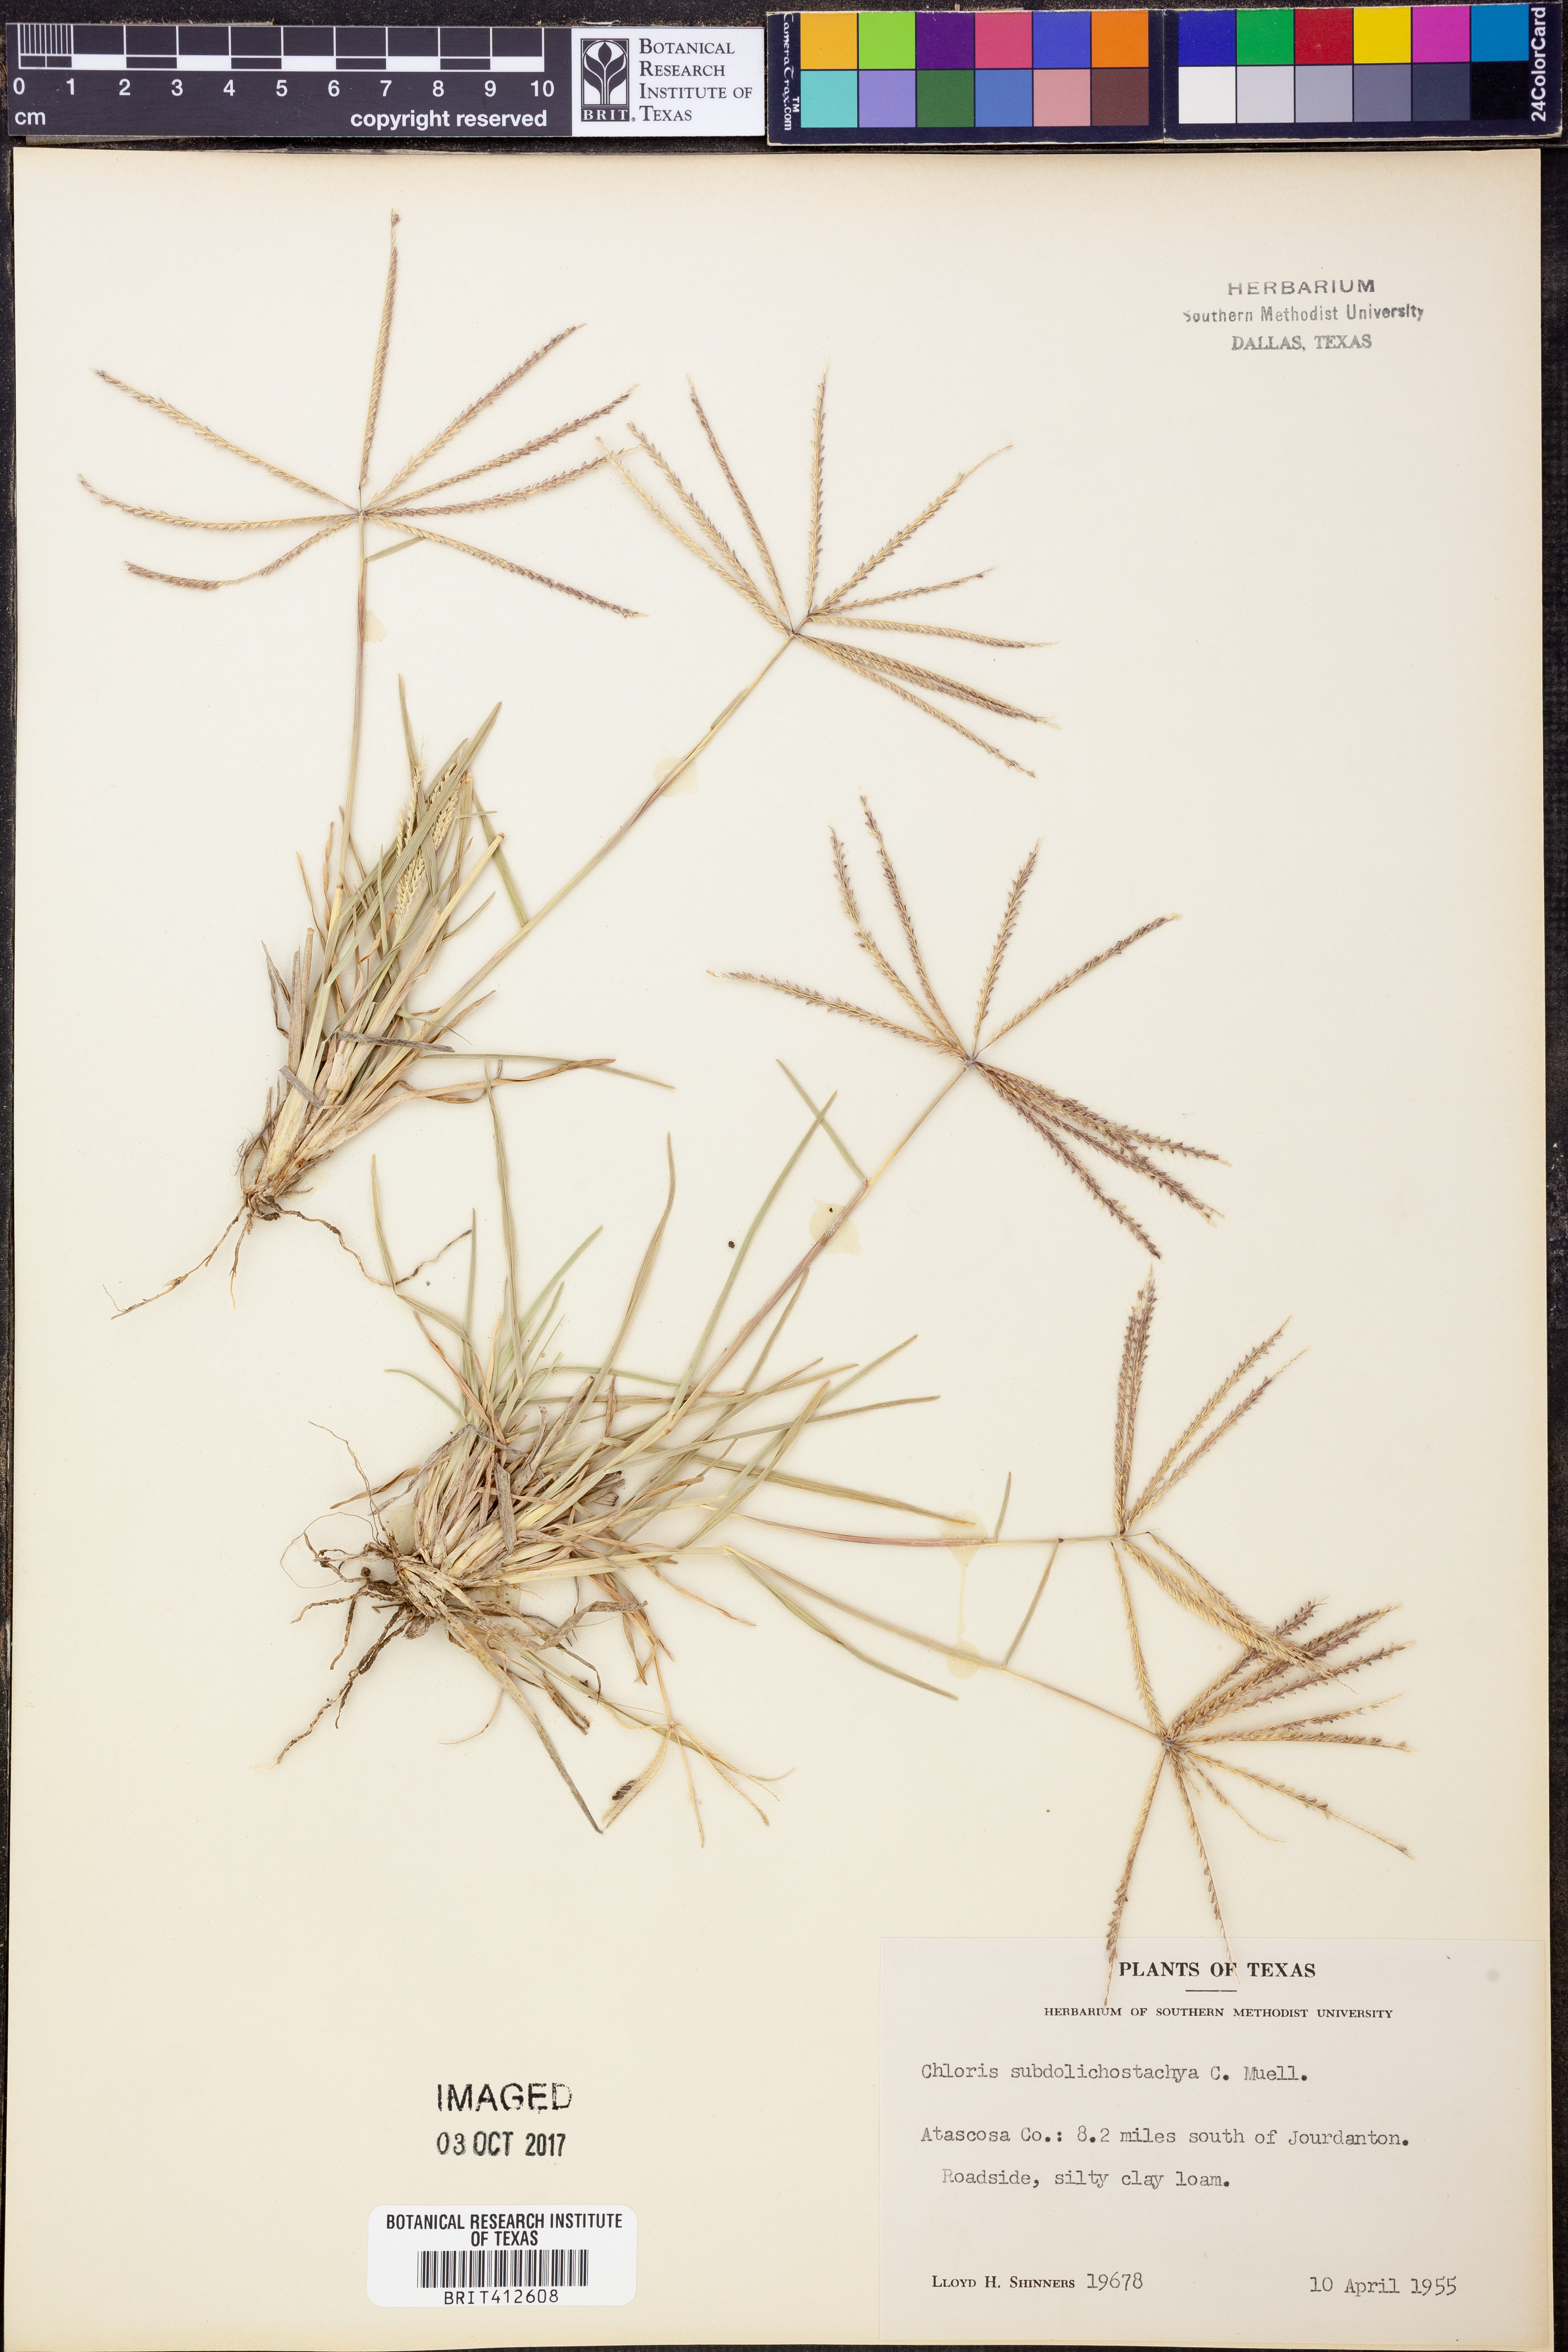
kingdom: Plantae
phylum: Tracheophyta
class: Liliopsida
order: Poales
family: Poaceae
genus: Chloris
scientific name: Chloris subdolichostachya
